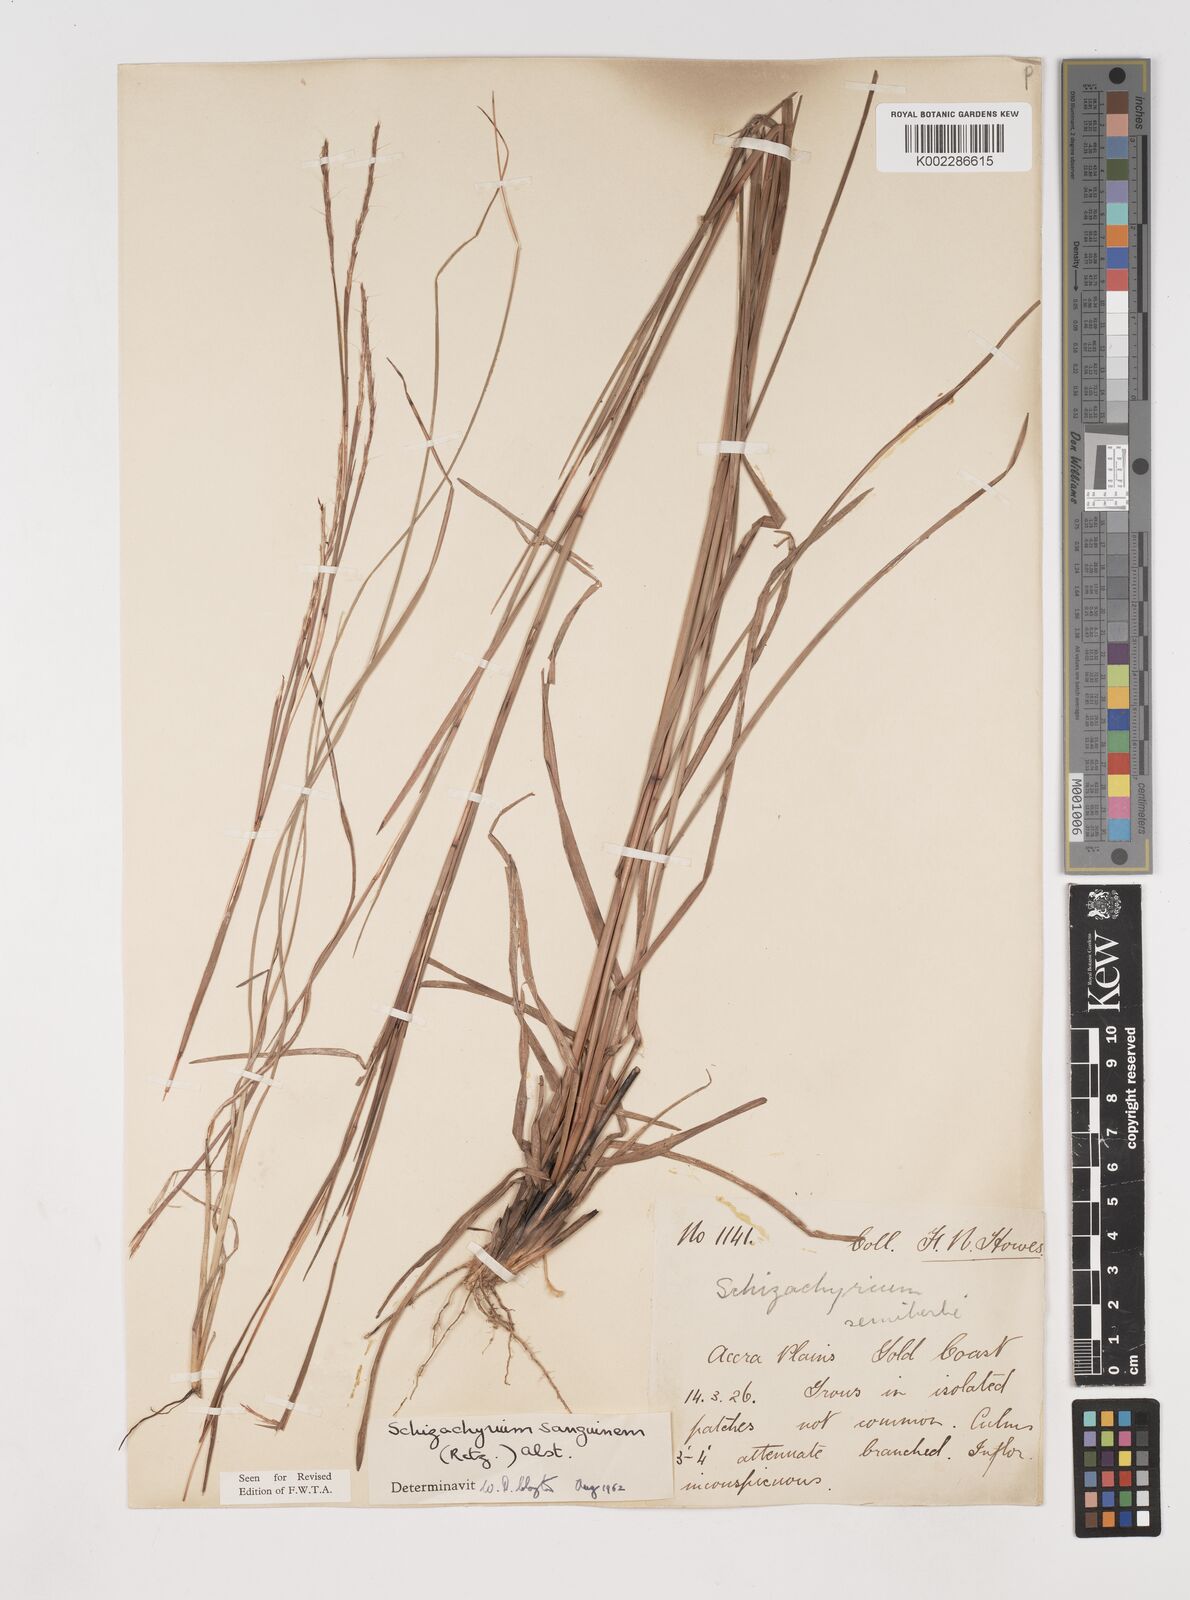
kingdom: Plantae
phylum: Tracheophyta
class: Liliopsida
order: Poales
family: Poaceae
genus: Schizachyrium
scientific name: Schizachyrium sanguineum
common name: Crimson bluestem
